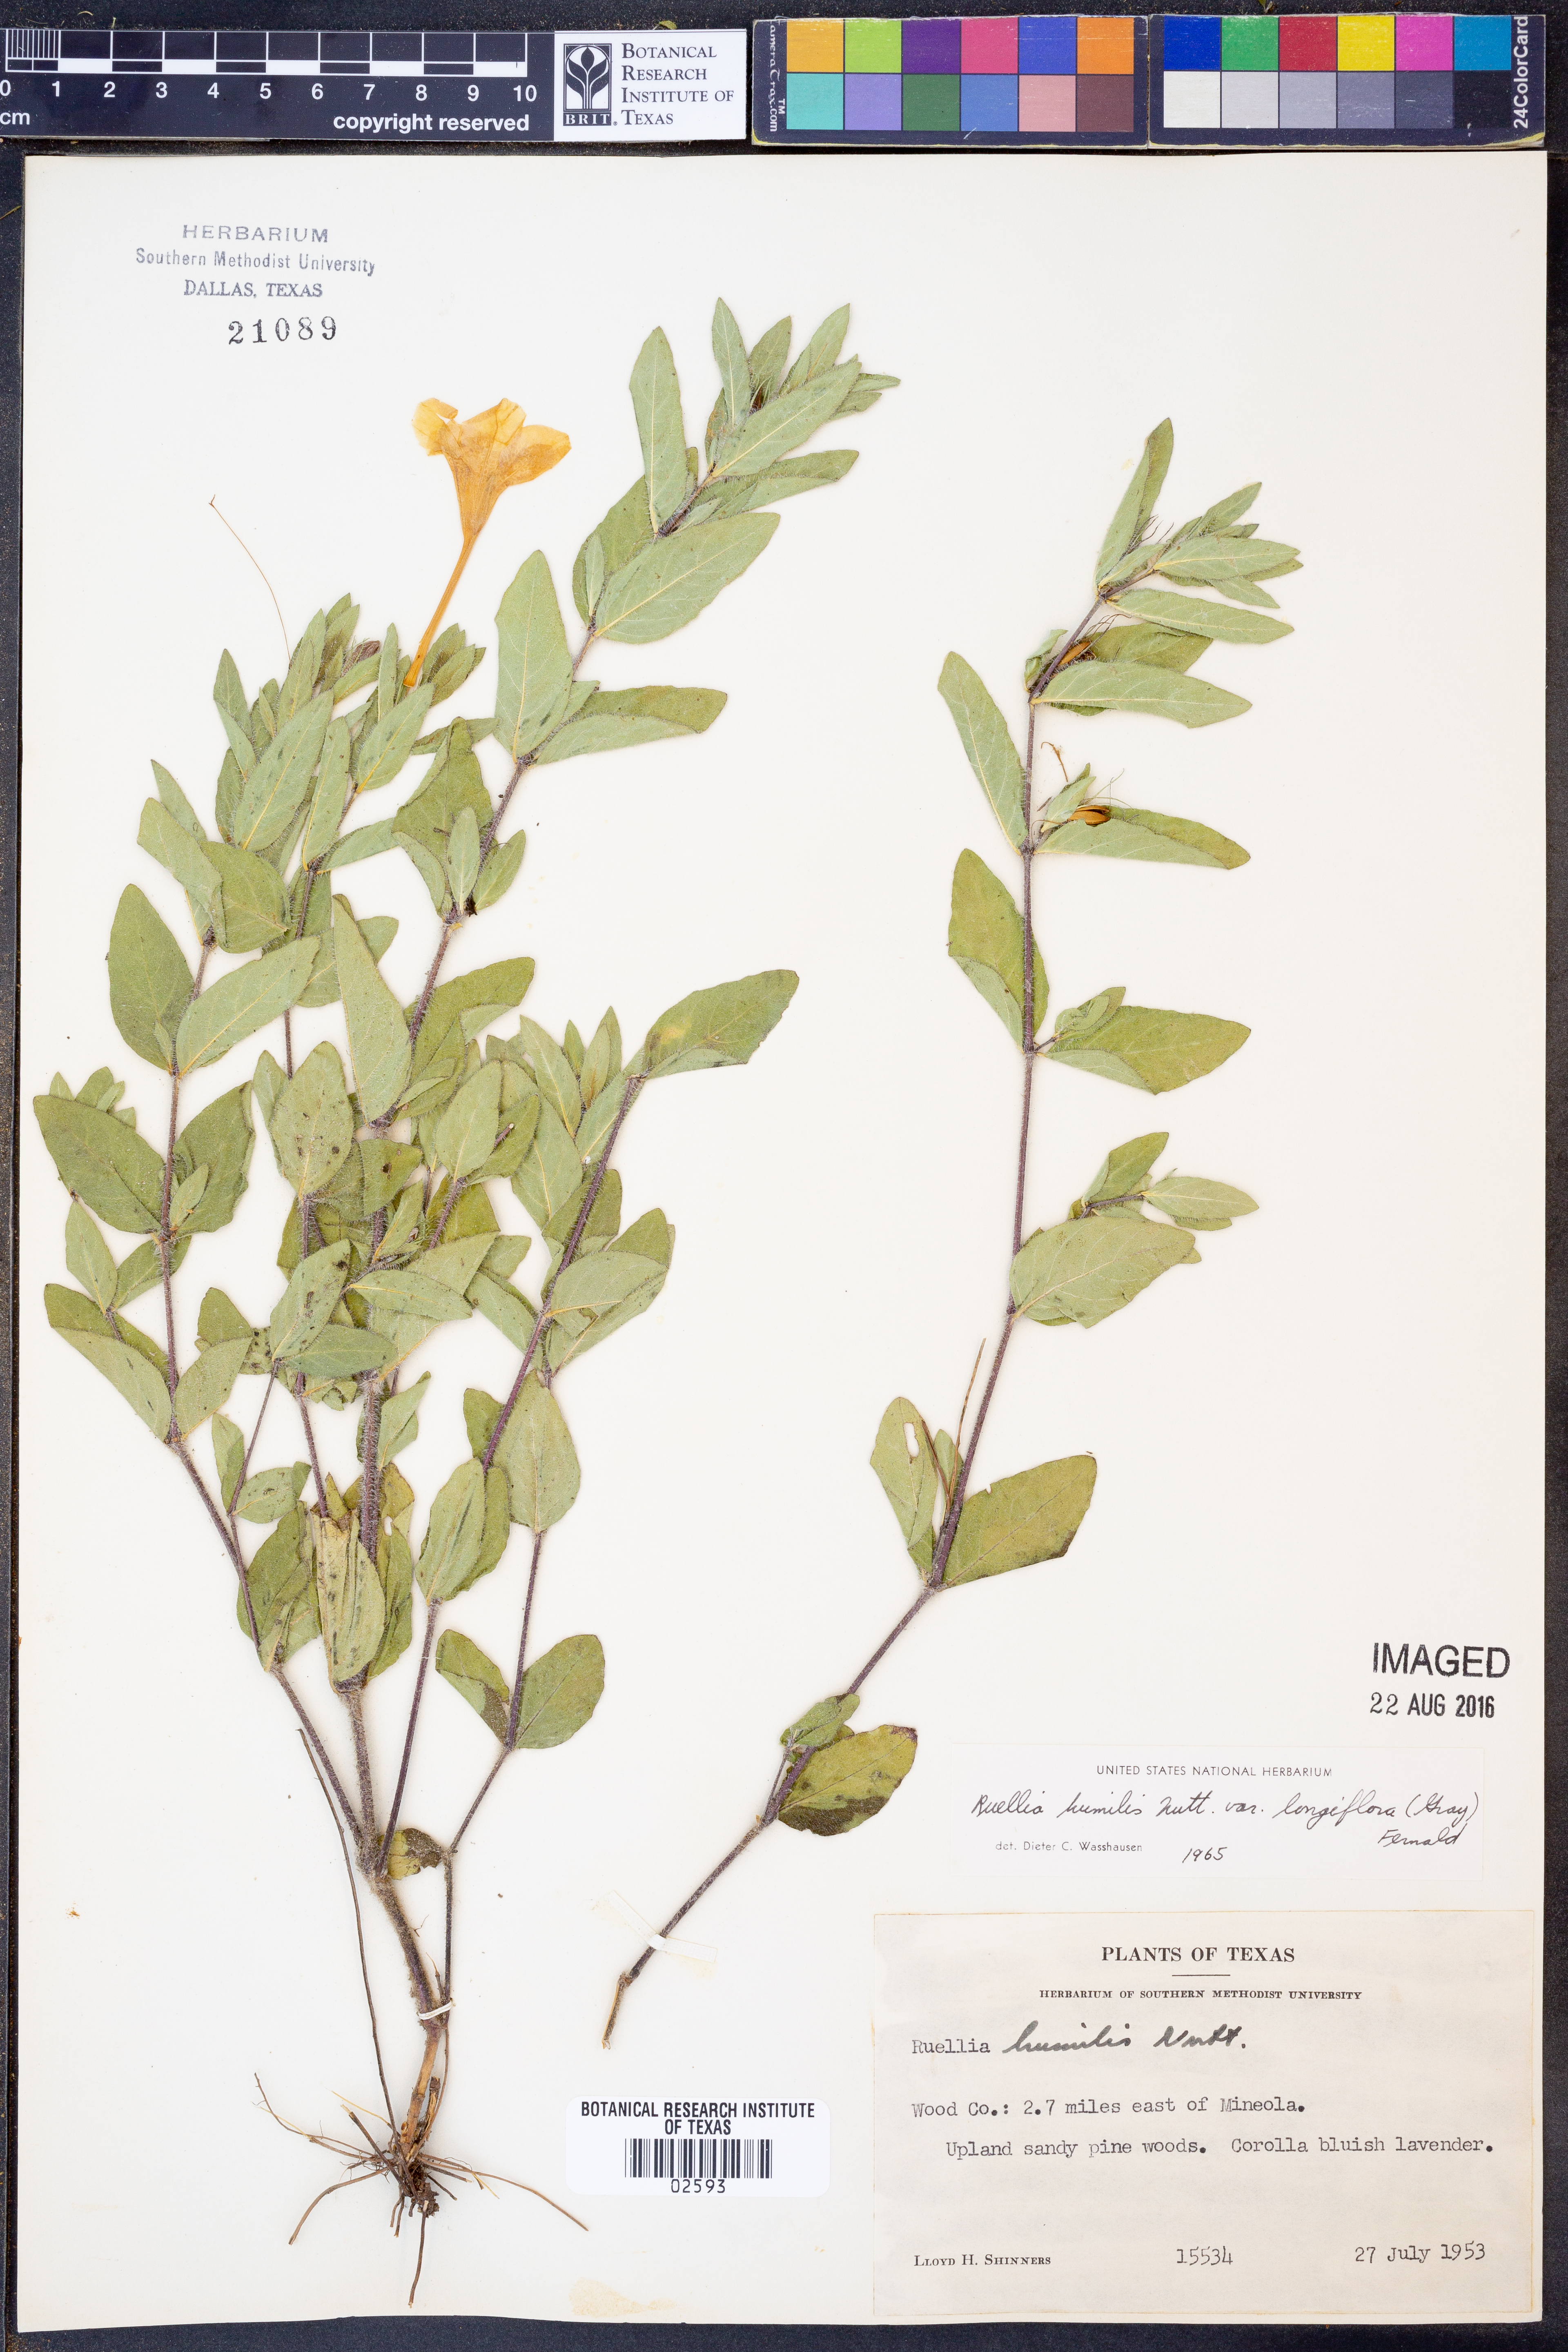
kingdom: Plantae
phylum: Tracheophyta
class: Magnoliopsida
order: Lamiales
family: Acanthaceae
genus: Ruellia
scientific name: Ruellia humilis
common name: Fringe-leaf ruellia
